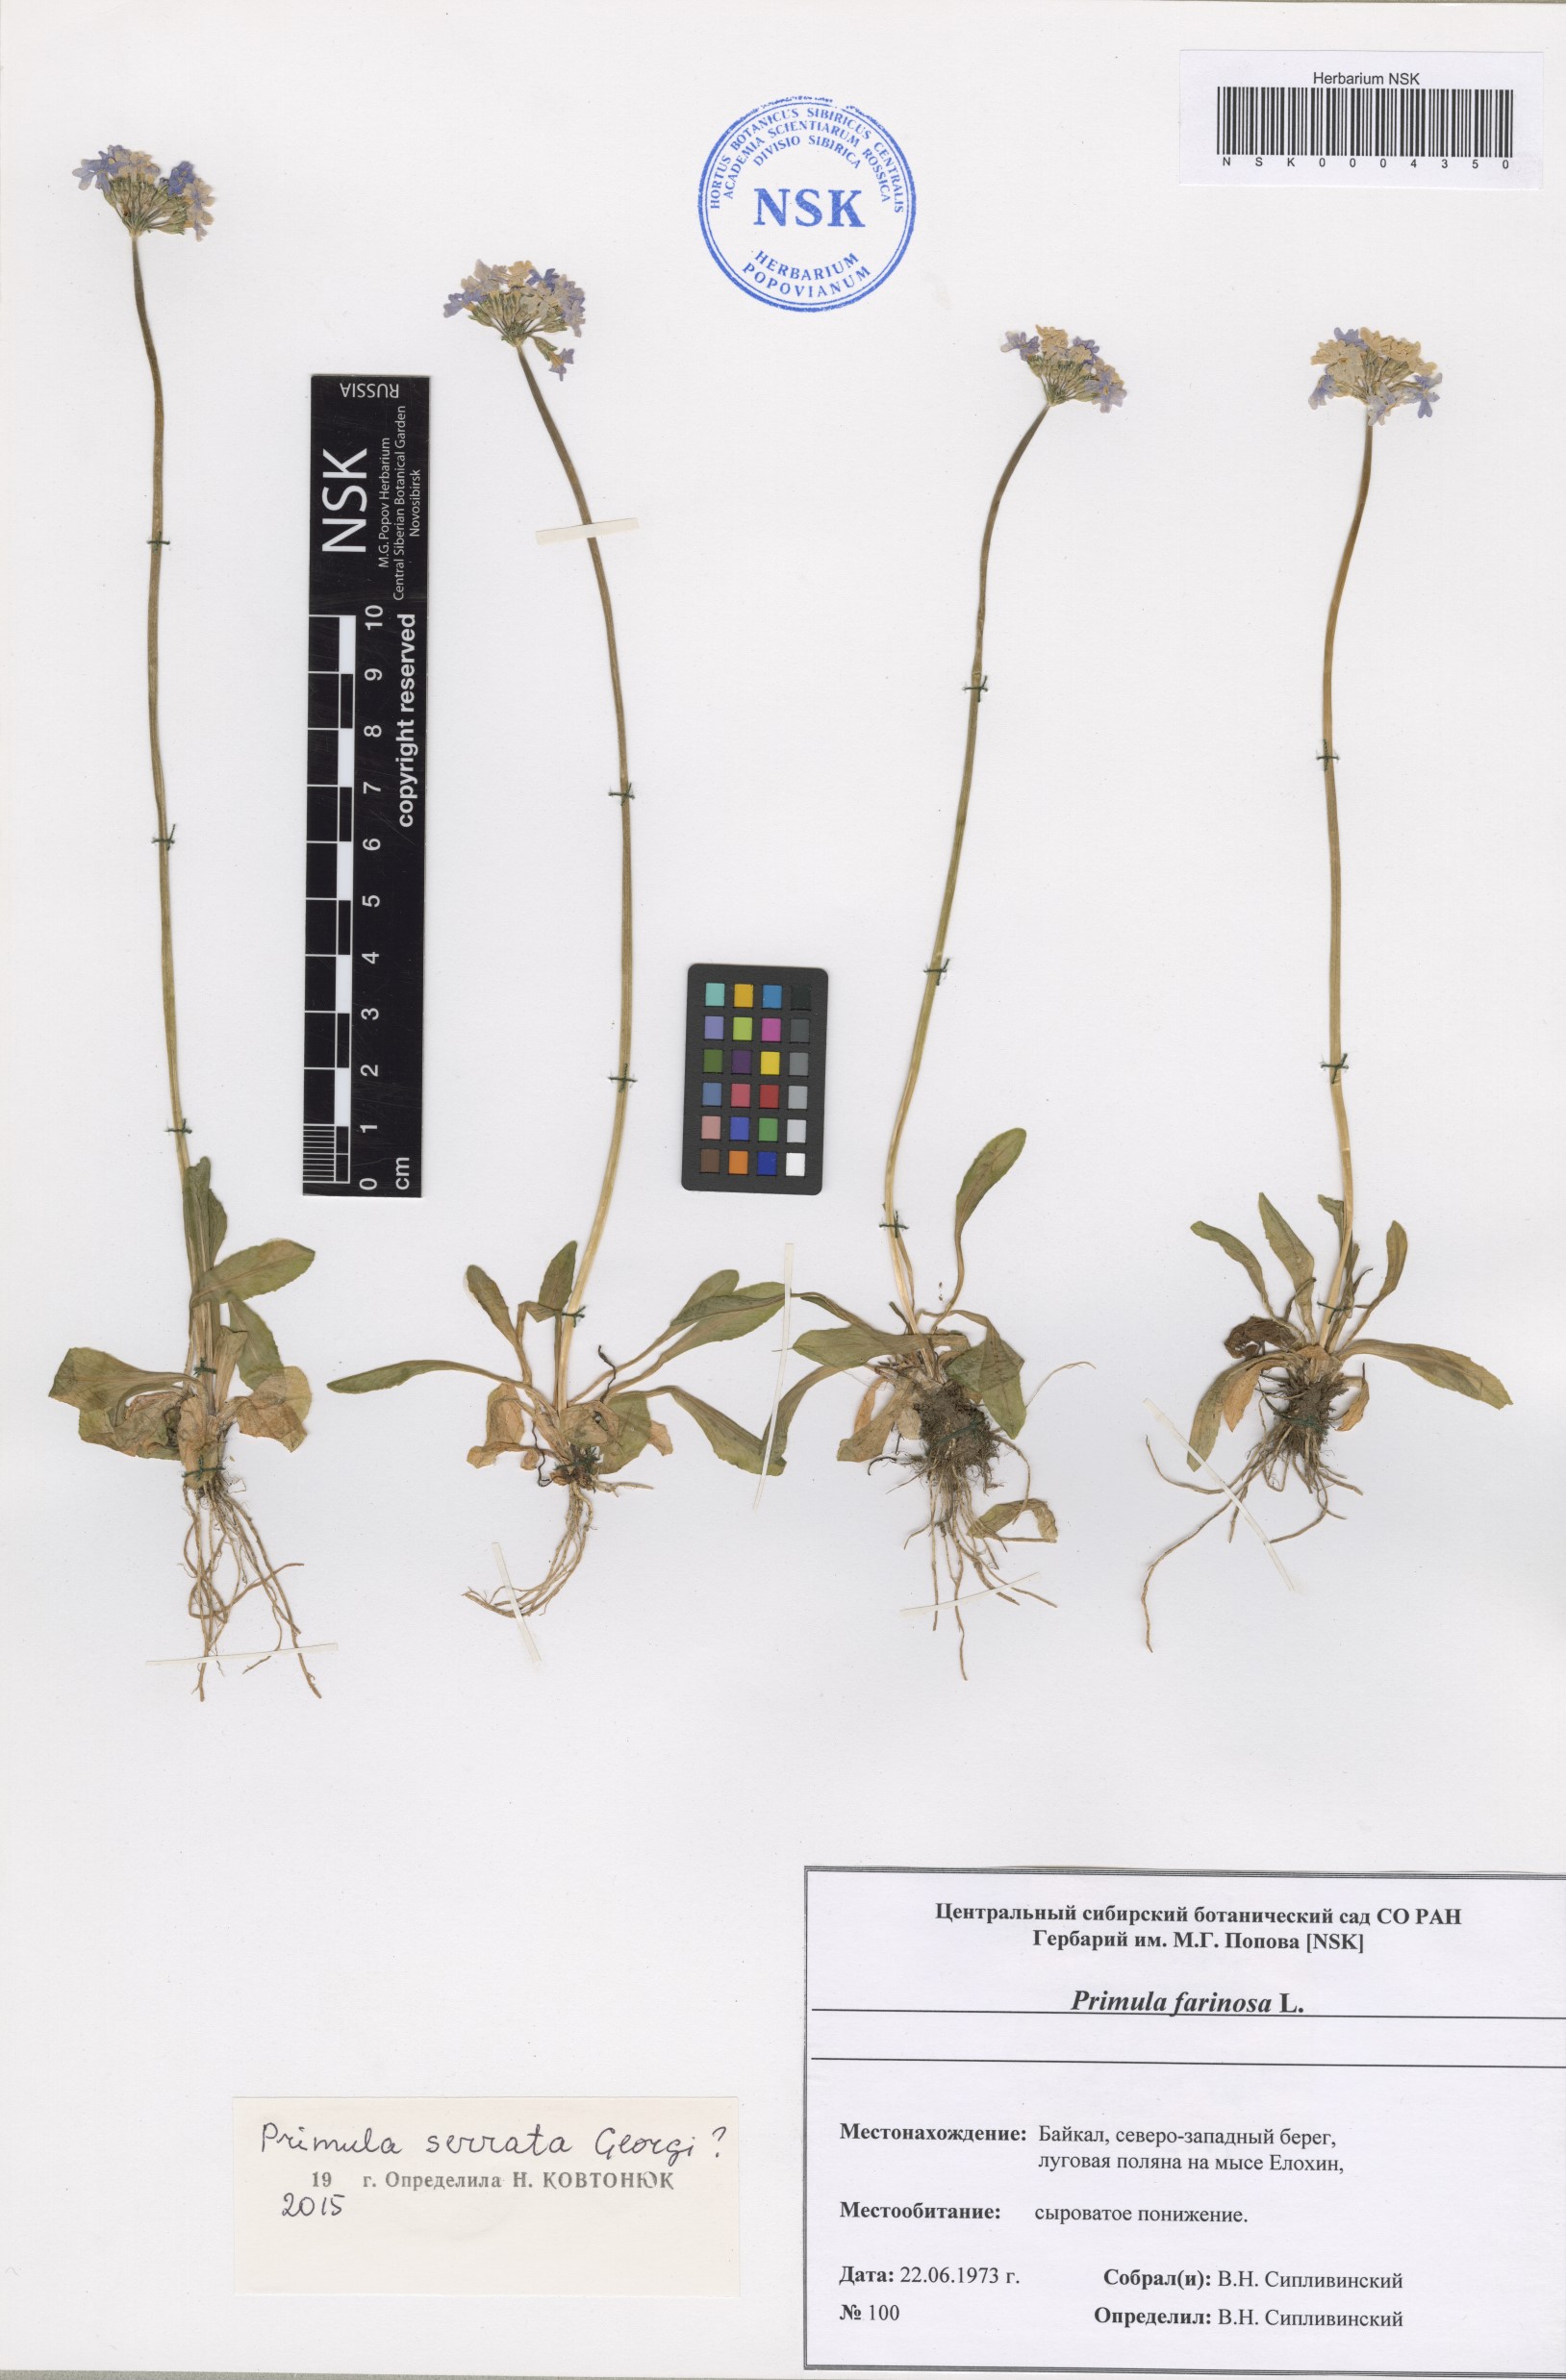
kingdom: Plantae
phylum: Tracheophyta
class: Magnoliopsida
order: Ericales
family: Primulaceae
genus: Primula
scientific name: Primula serrata
